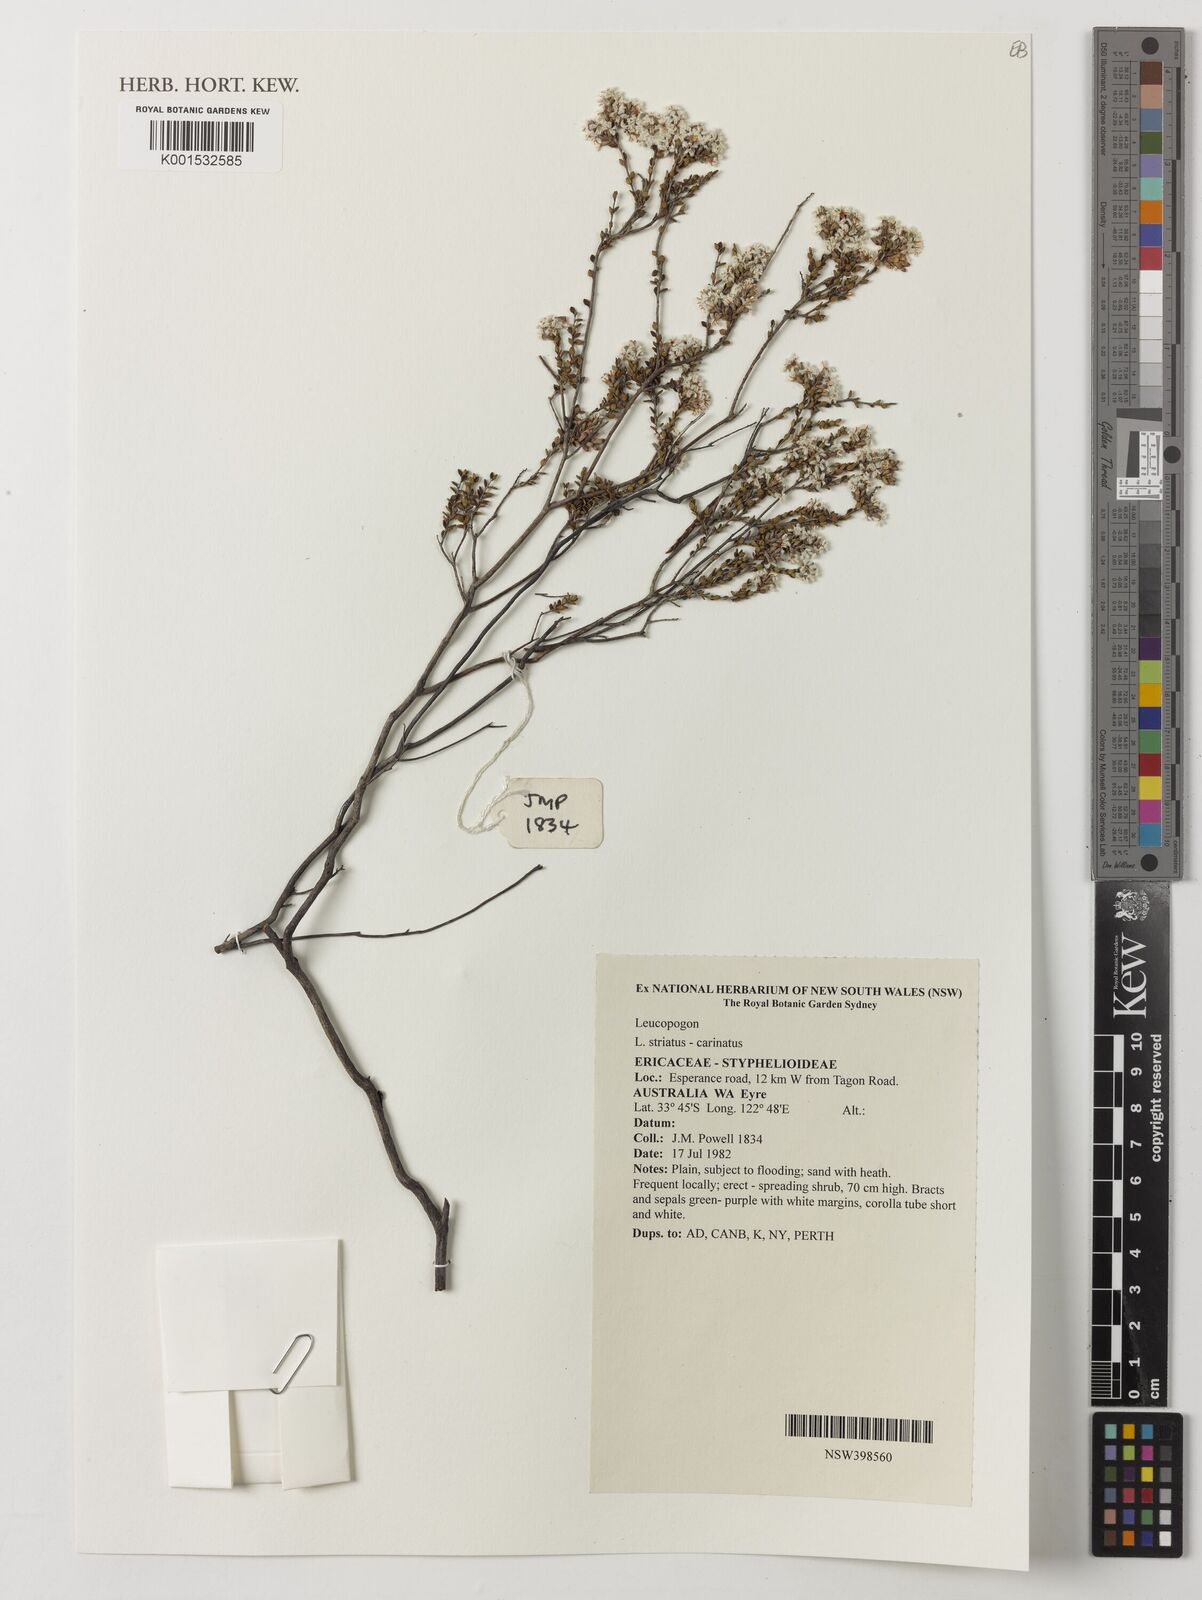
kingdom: Plantae
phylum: Tracheophyta
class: Magnoliopsida
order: Ericales
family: Ericaceae
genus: Styphelia
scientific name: Styphelia striata
